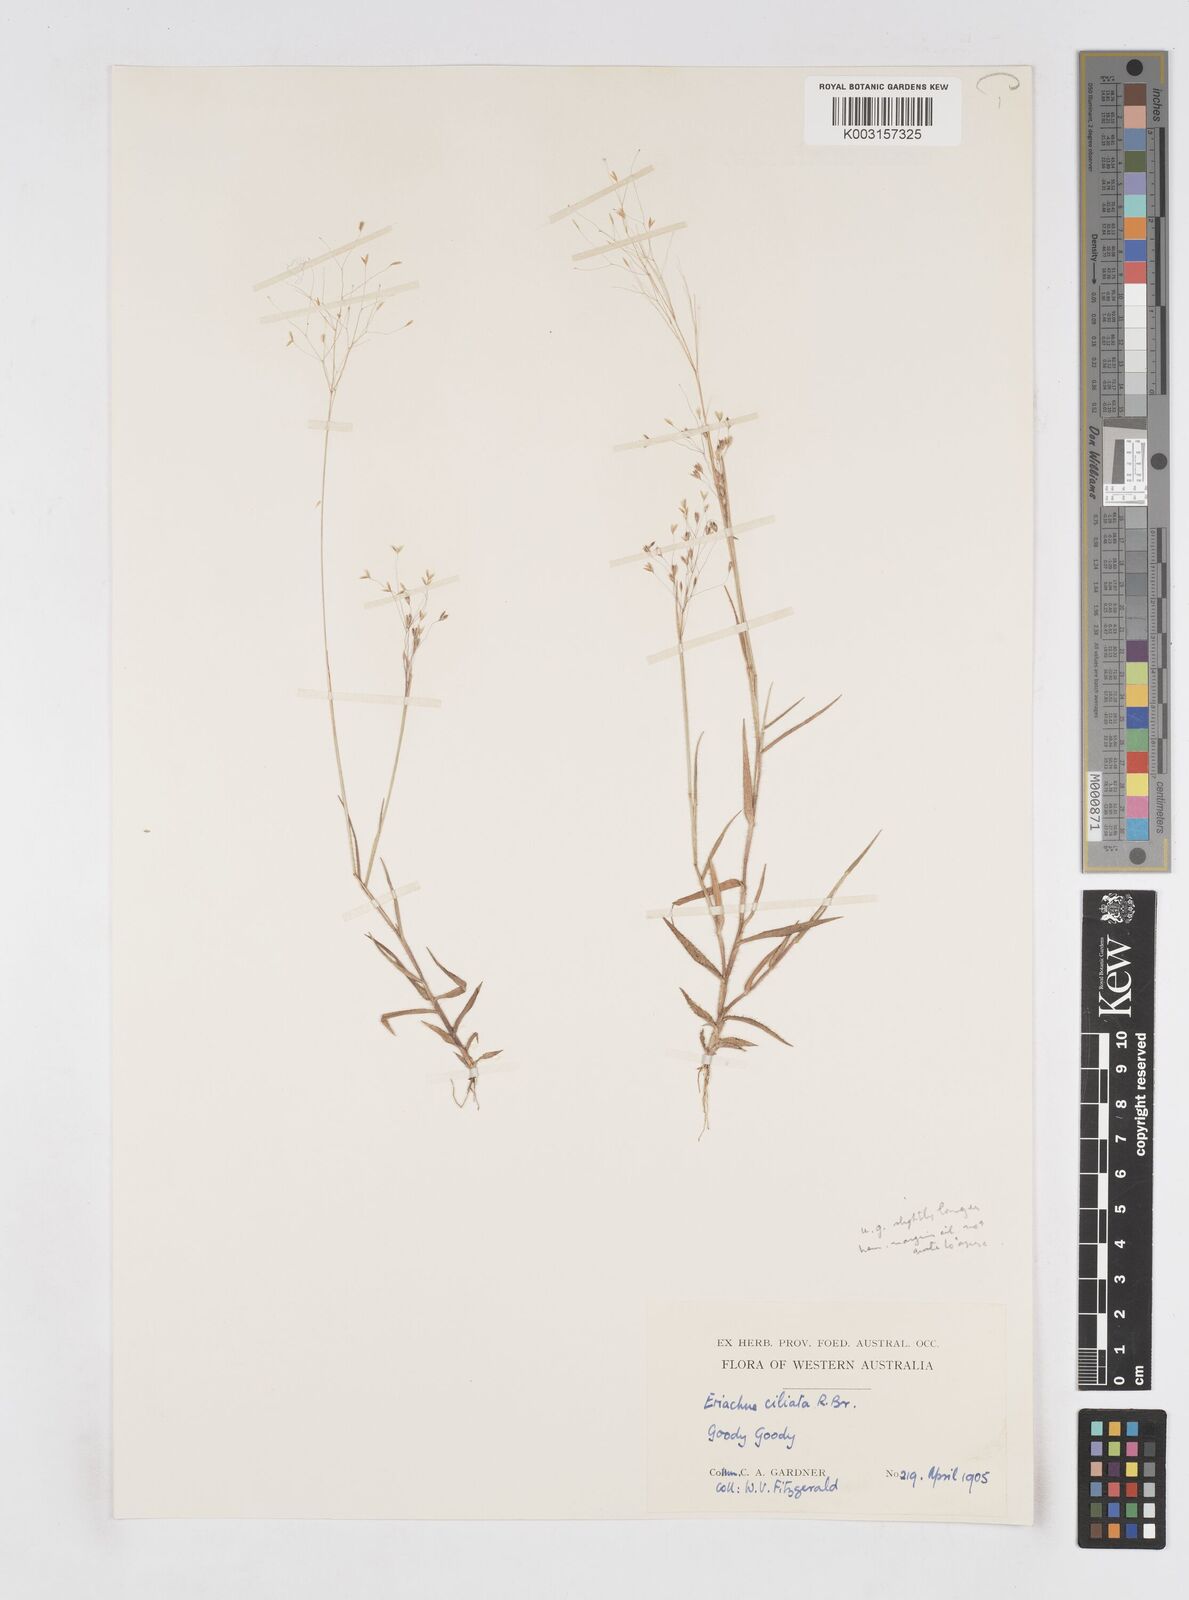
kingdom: Plantae
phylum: Tracheophyta
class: Liliopsida
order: Poales
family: Poaceae
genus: Eriachne
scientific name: Eriachne ciliata
